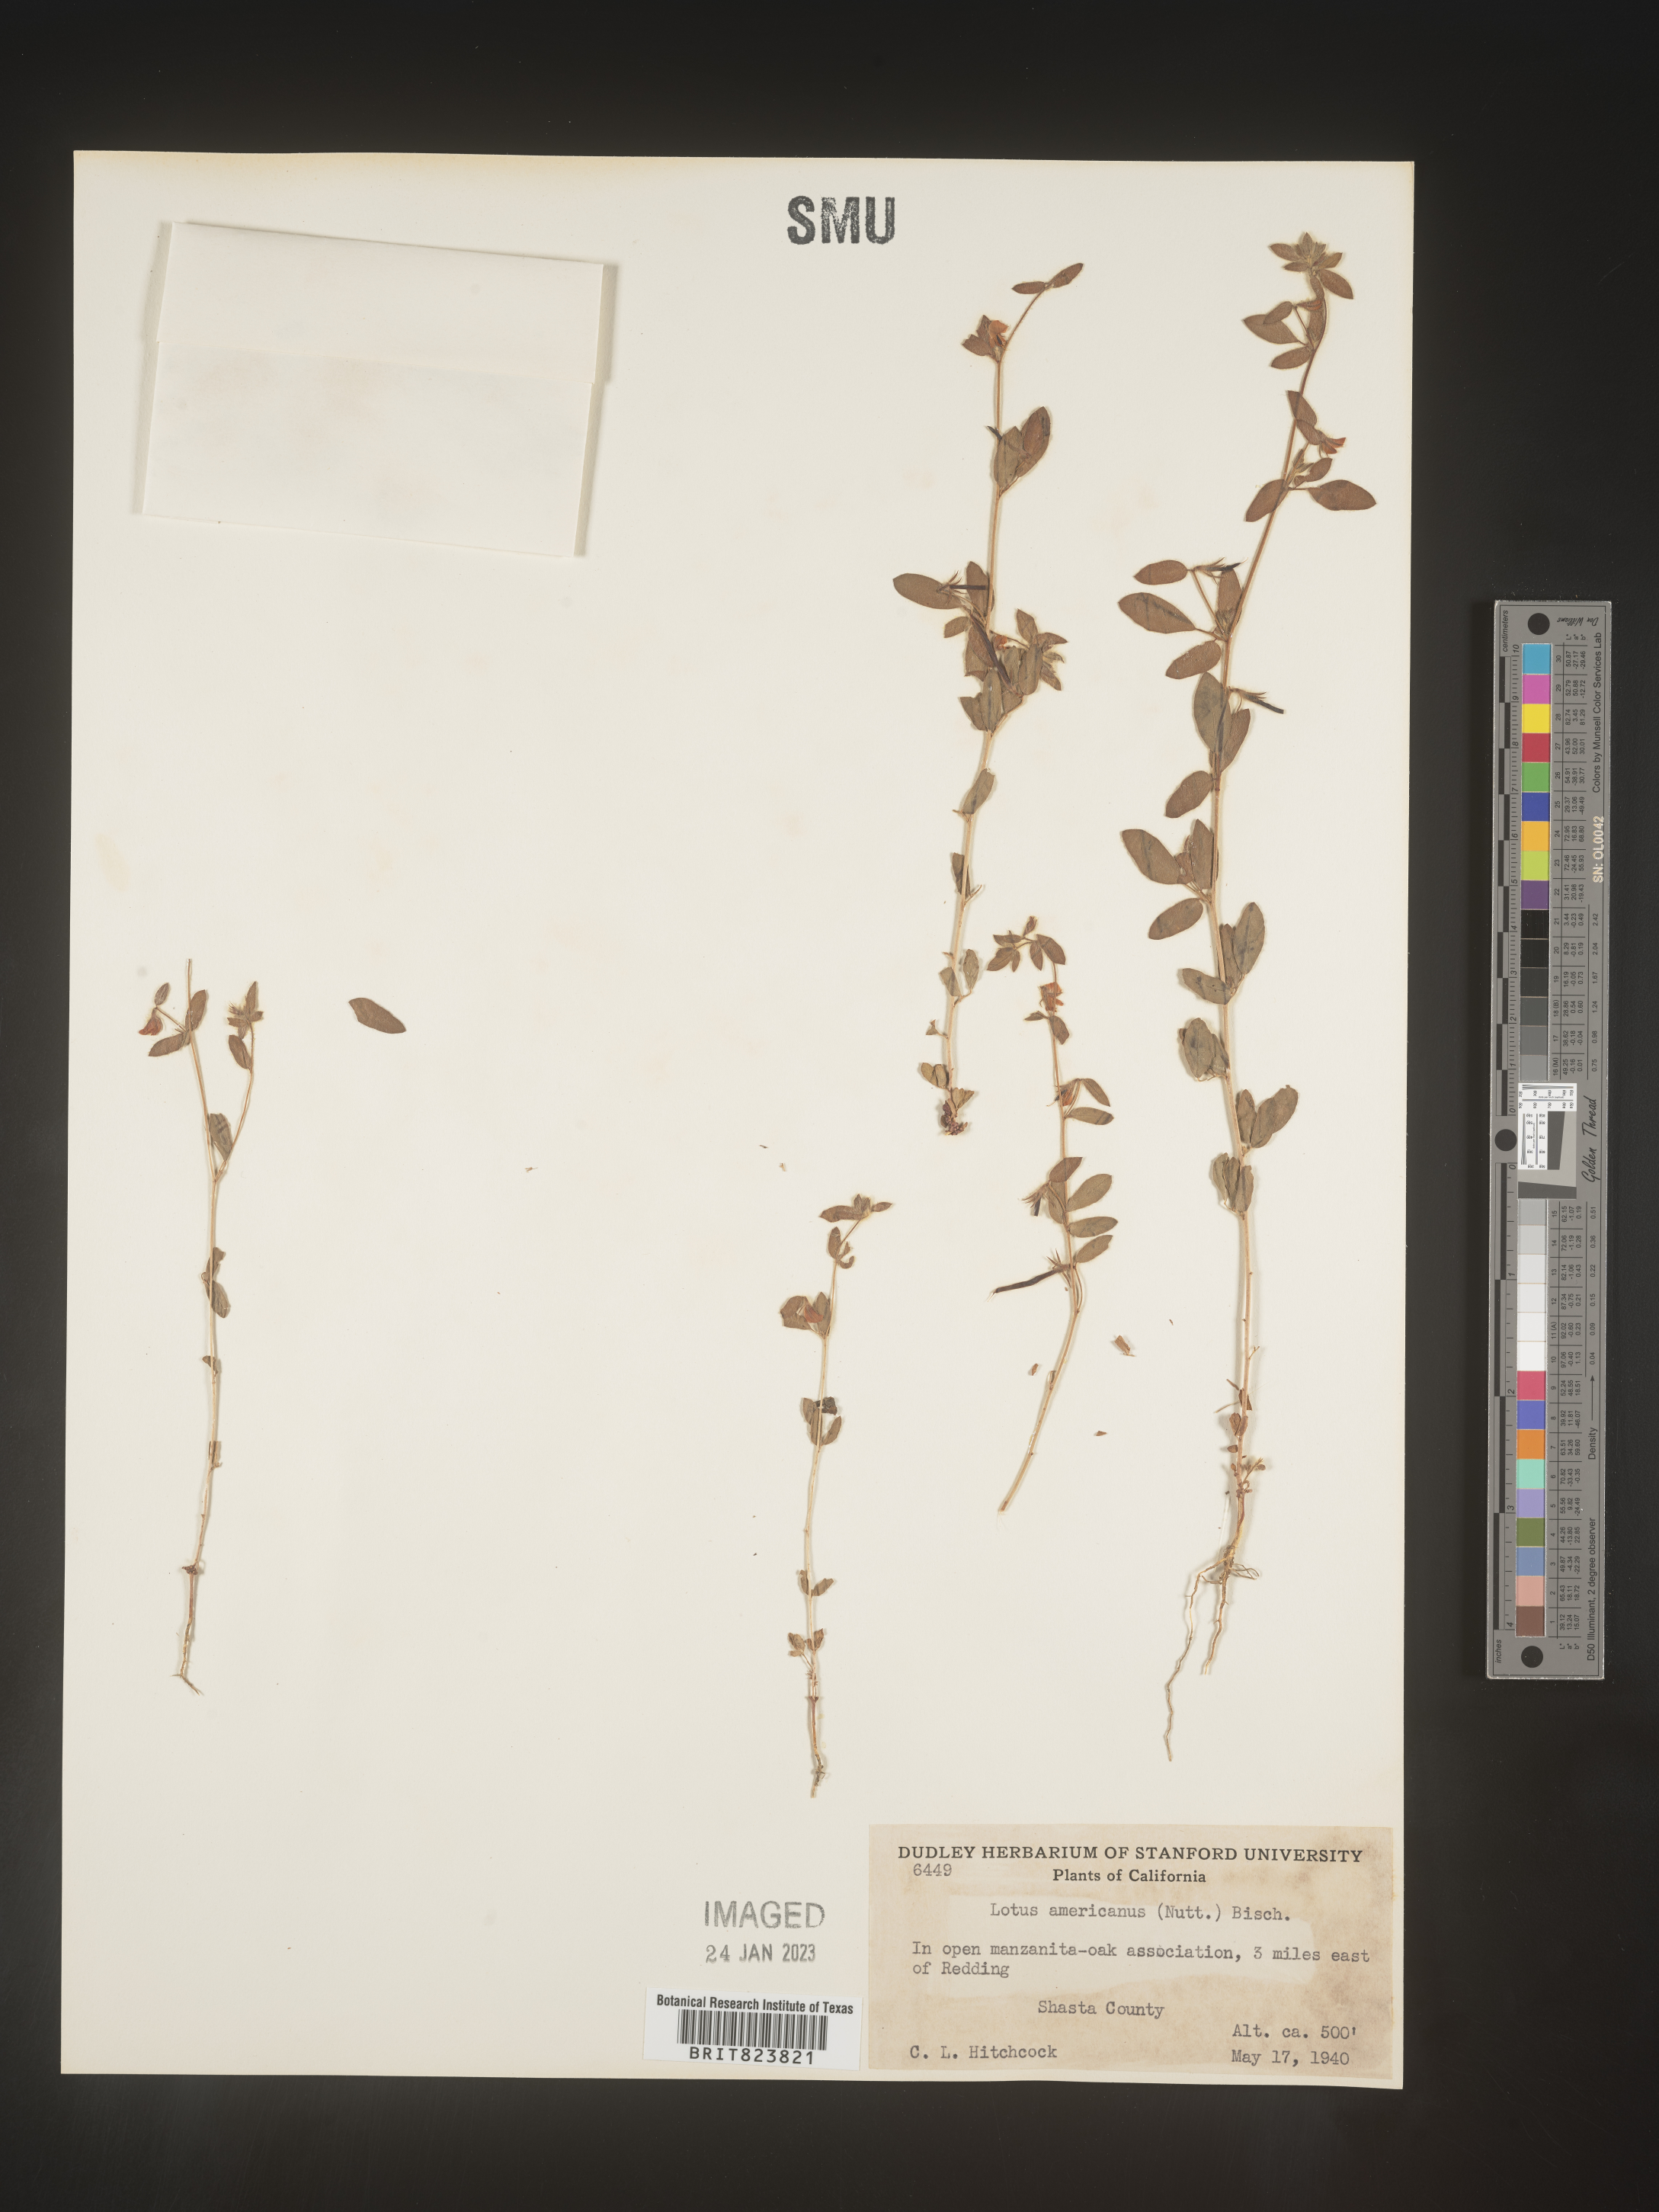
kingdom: Plantae
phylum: Tracheophyta
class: Magnoliopsida
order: Fabales
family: Fabaceae
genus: Acmispon
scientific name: Acmispon americanus
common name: American bird's-foot trefoil
